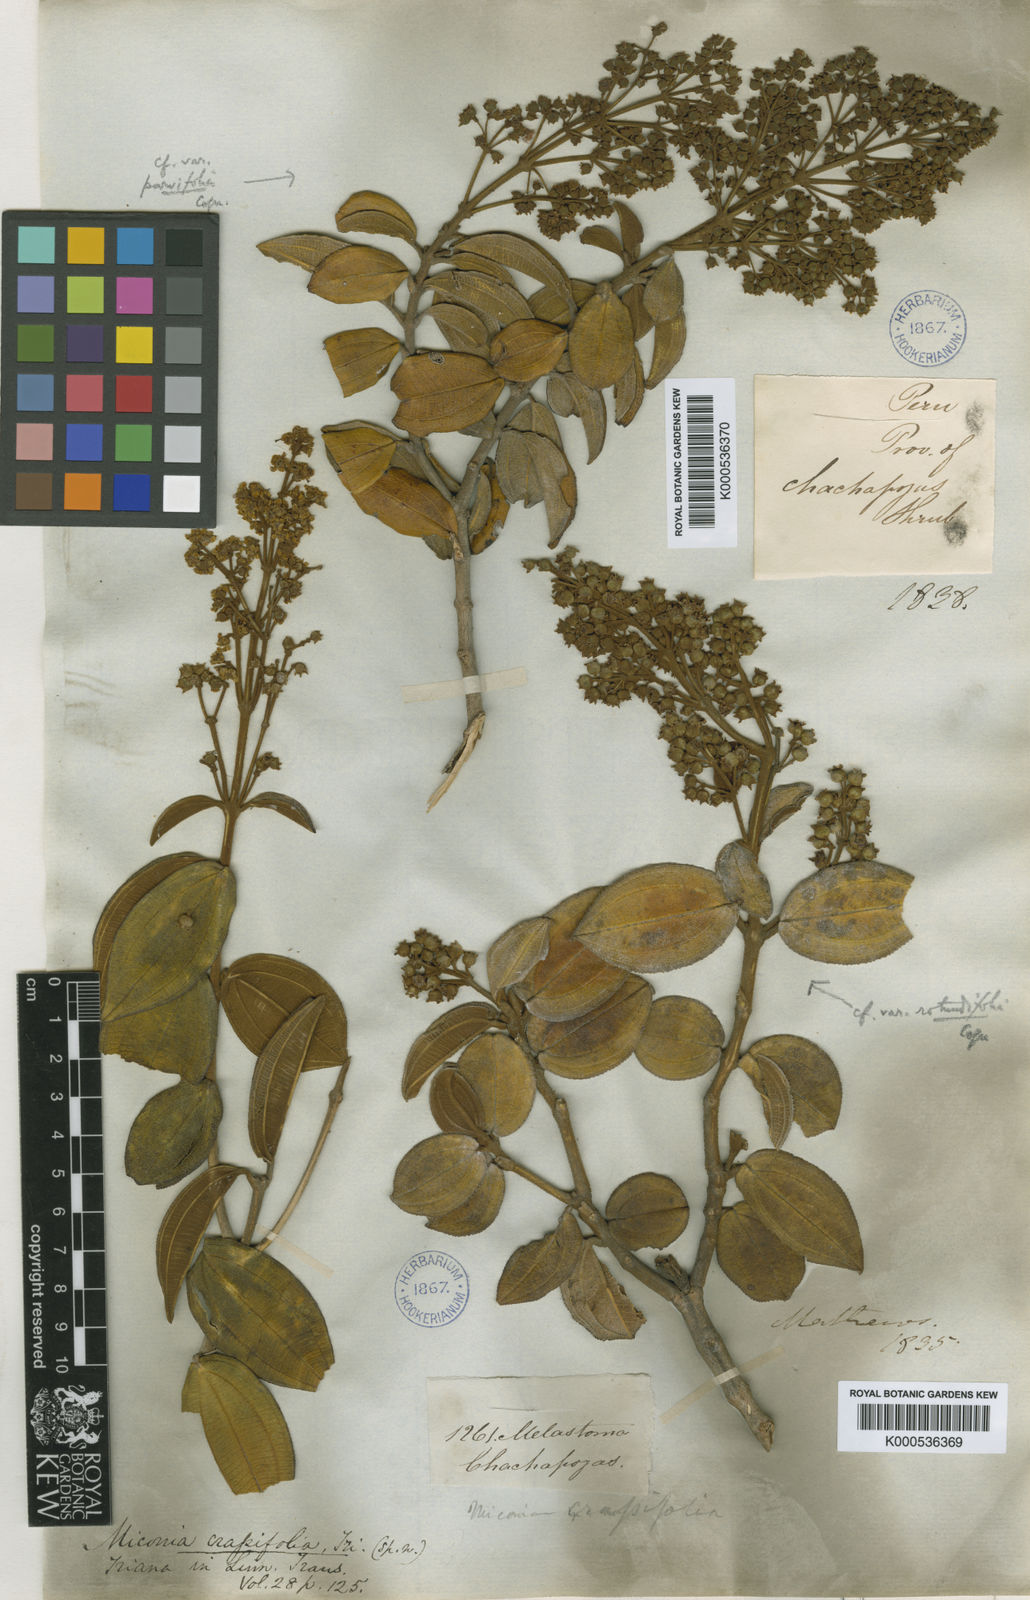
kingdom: Plantae
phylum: Tracheophyta
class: Magnoliopsida
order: Myrtales
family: Melastomataceae
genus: Miconia
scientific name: Miconia crassifolia
